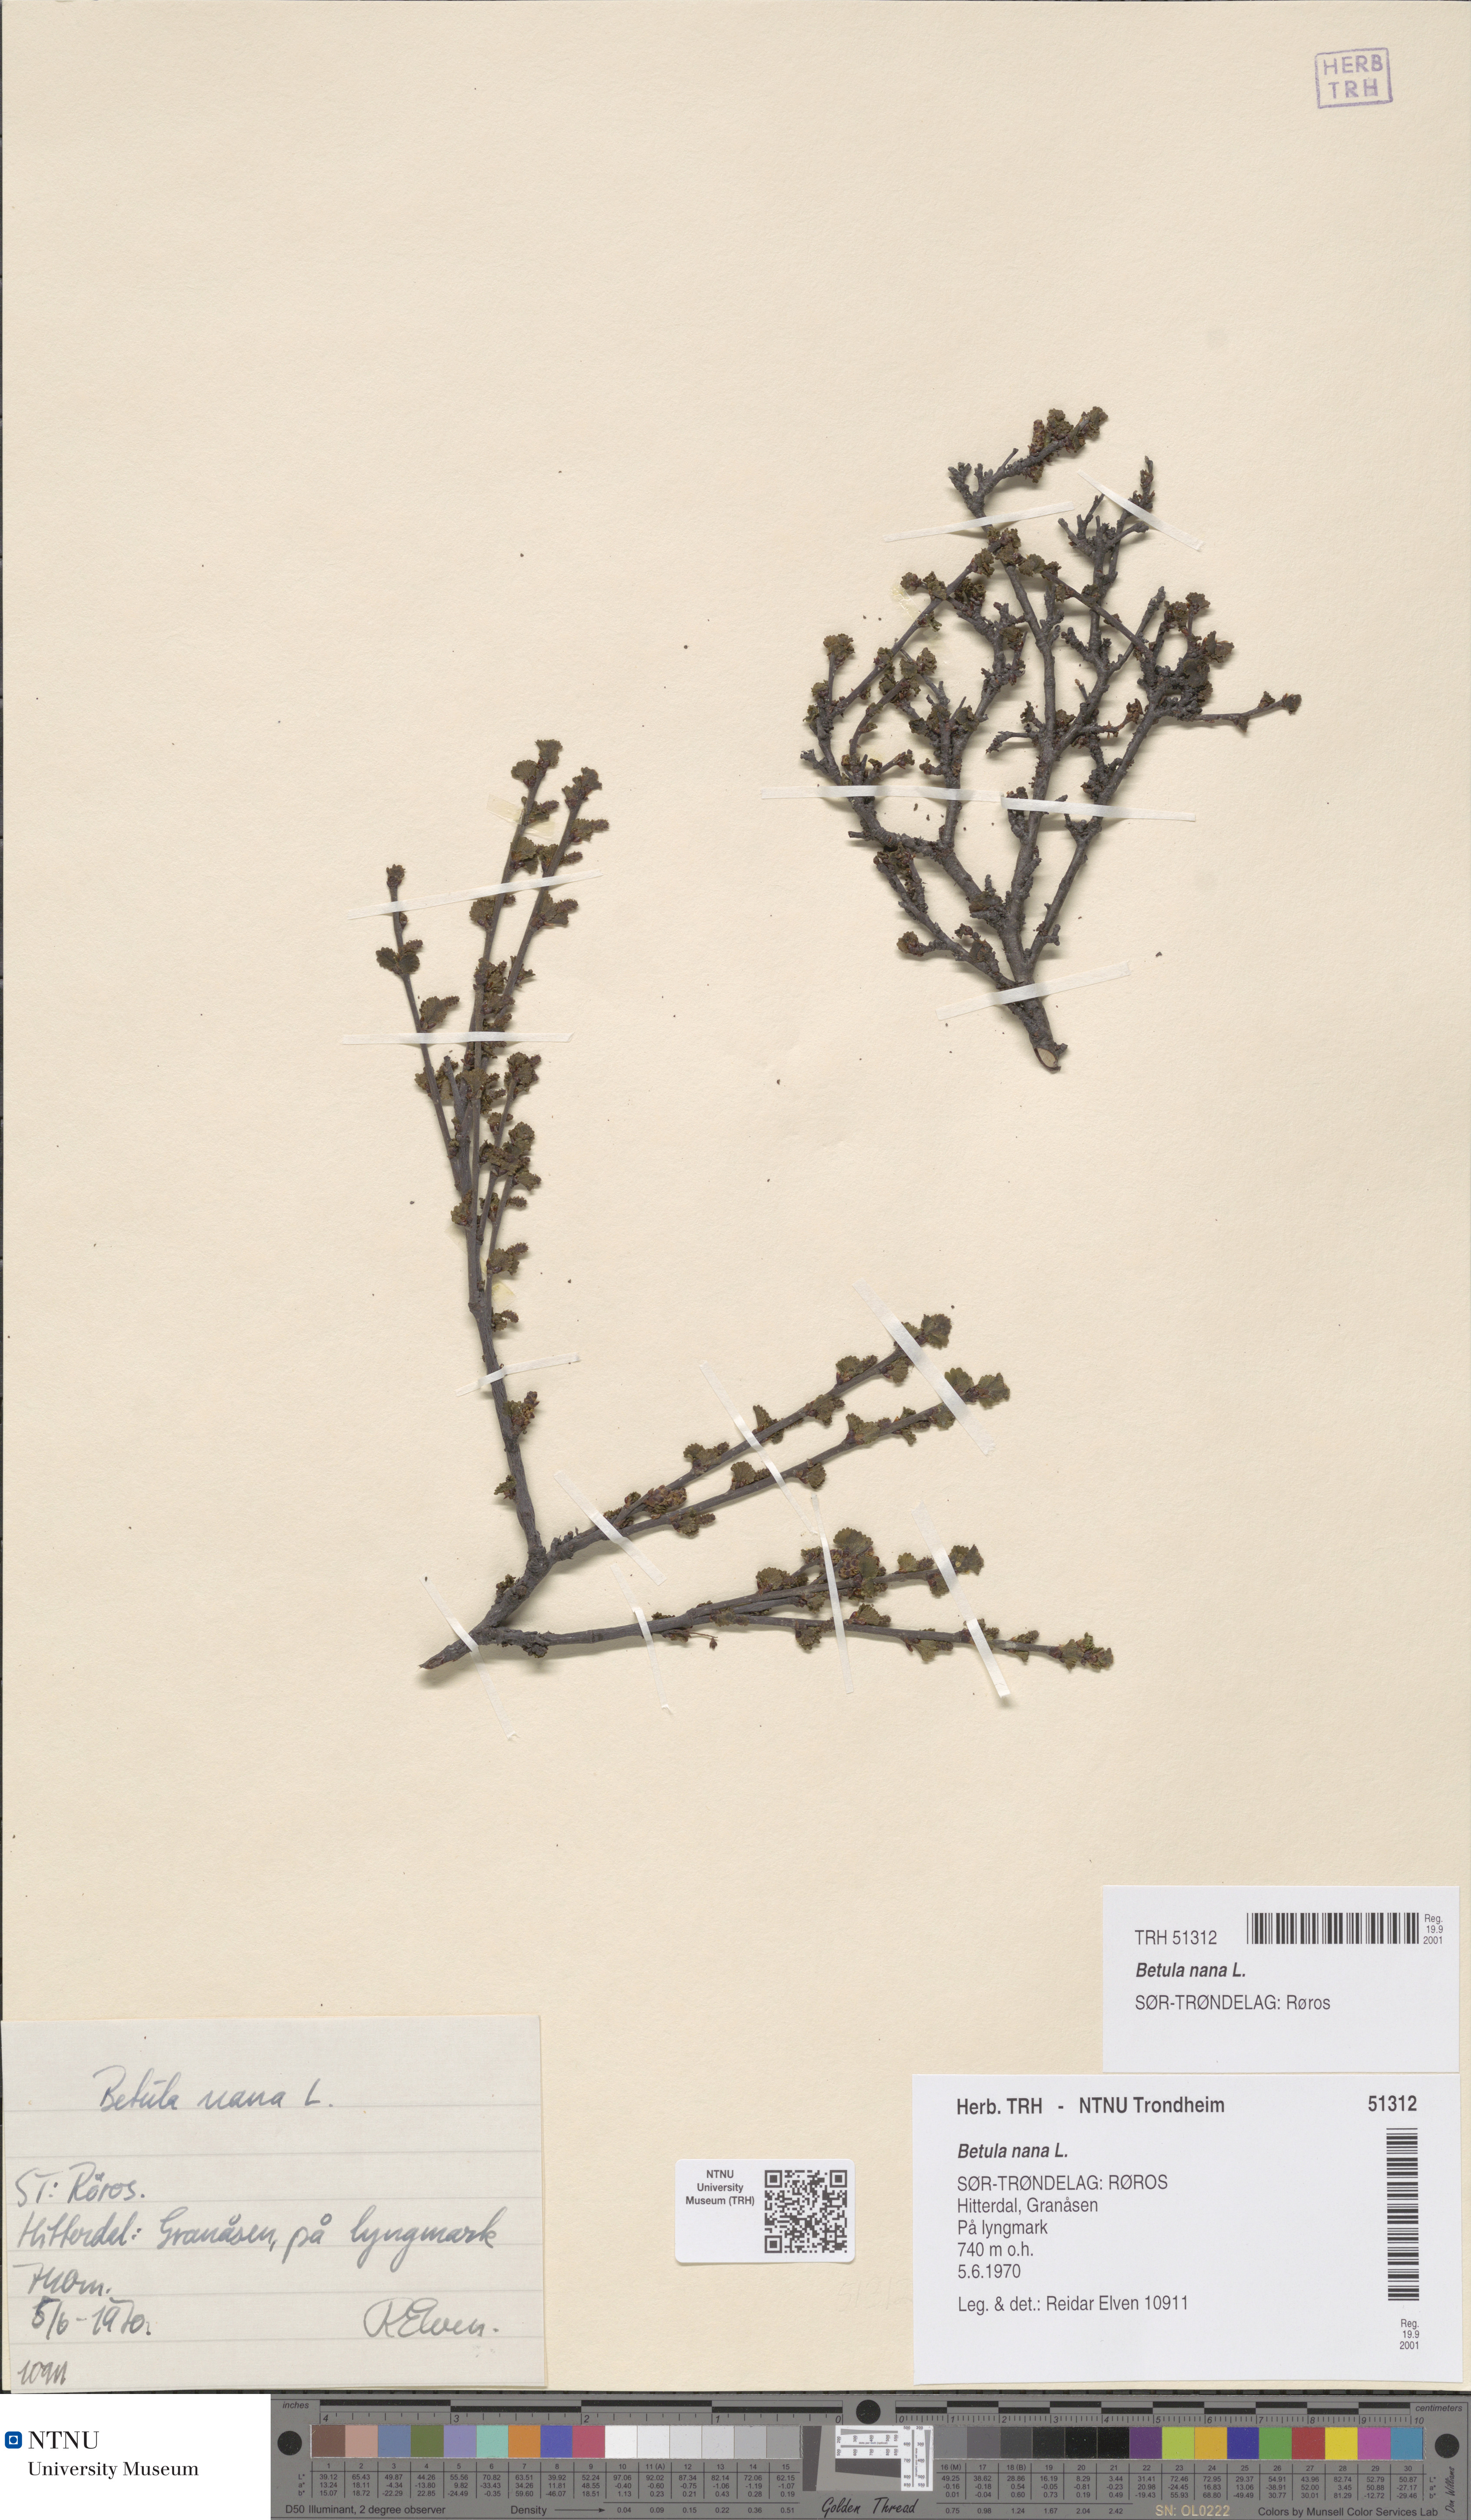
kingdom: Plantae
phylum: Tracheophyta
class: Magnoliopsida
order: Fagales
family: Betulaceae
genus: Betula
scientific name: Betula nana
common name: Arctic dwarf birch
